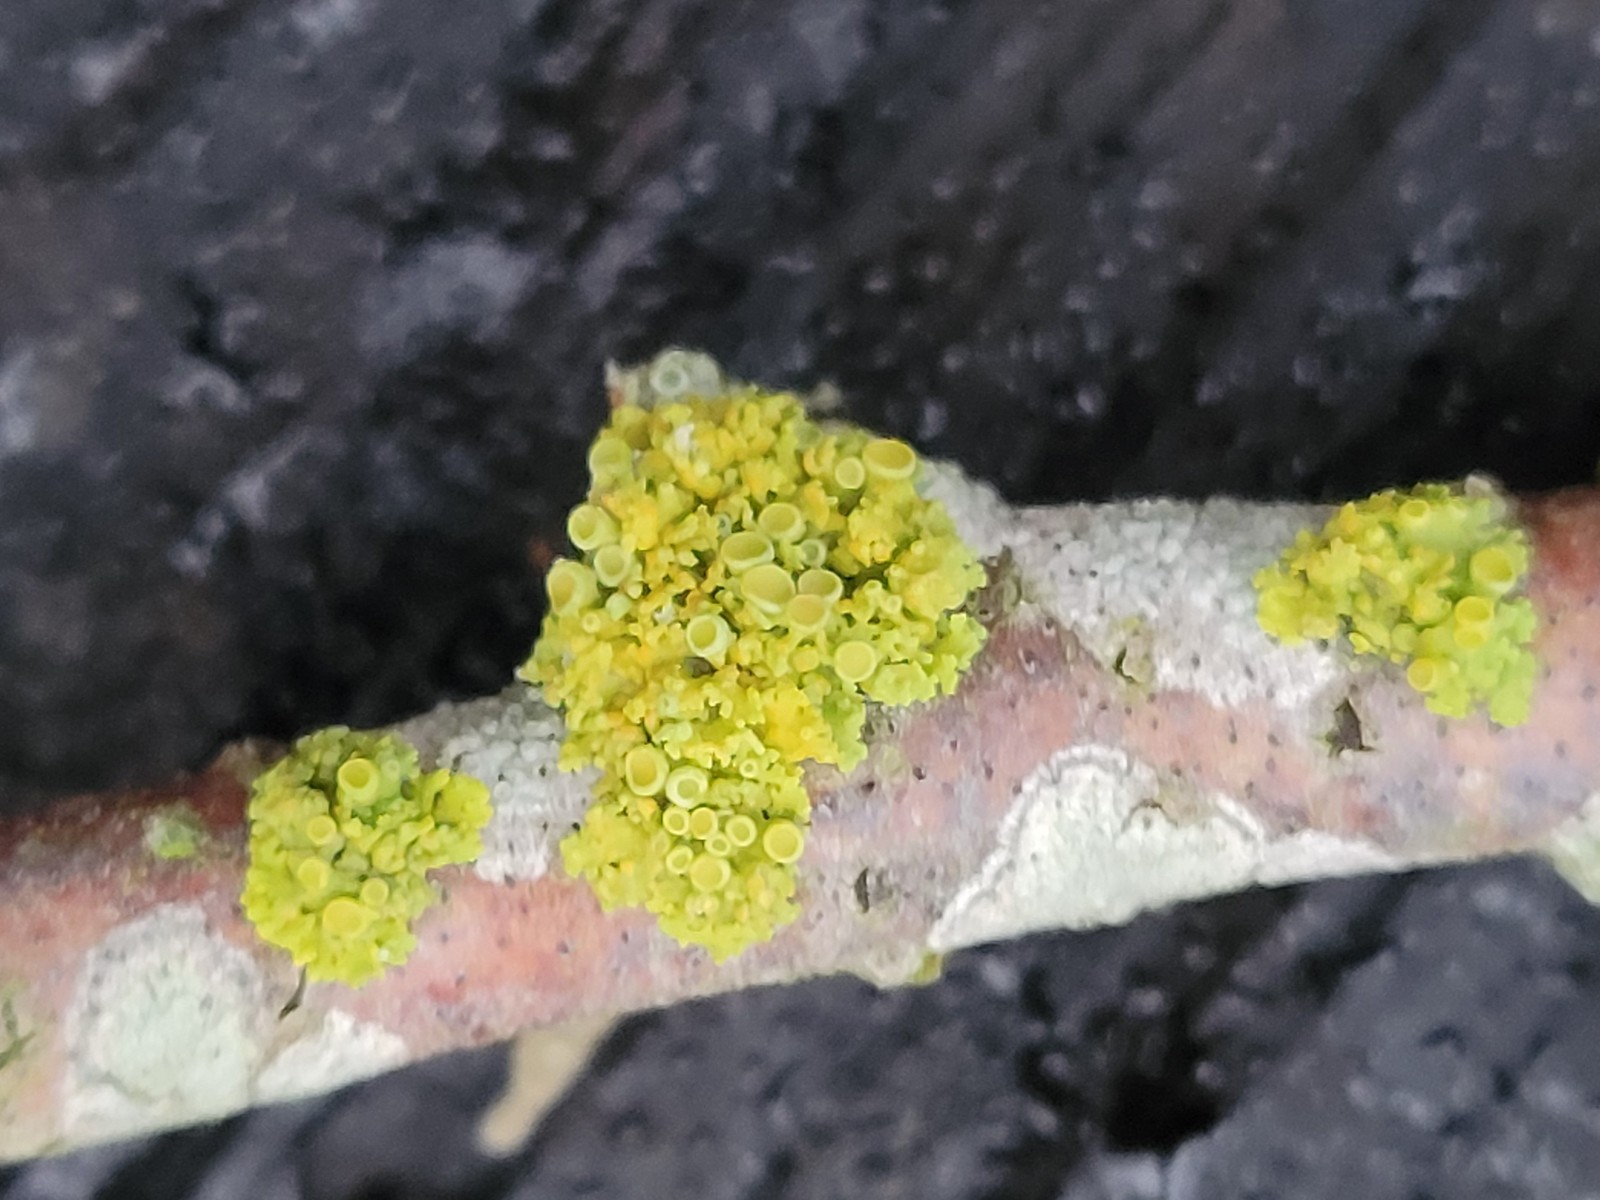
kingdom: Fungi
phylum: Ascomycota
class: Lecanoromycetes
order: Teloschistales
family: Teloschistaceae
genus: Polycauliona
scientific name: Polycauliona polycarpa
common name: mangefrugtet orangelav
